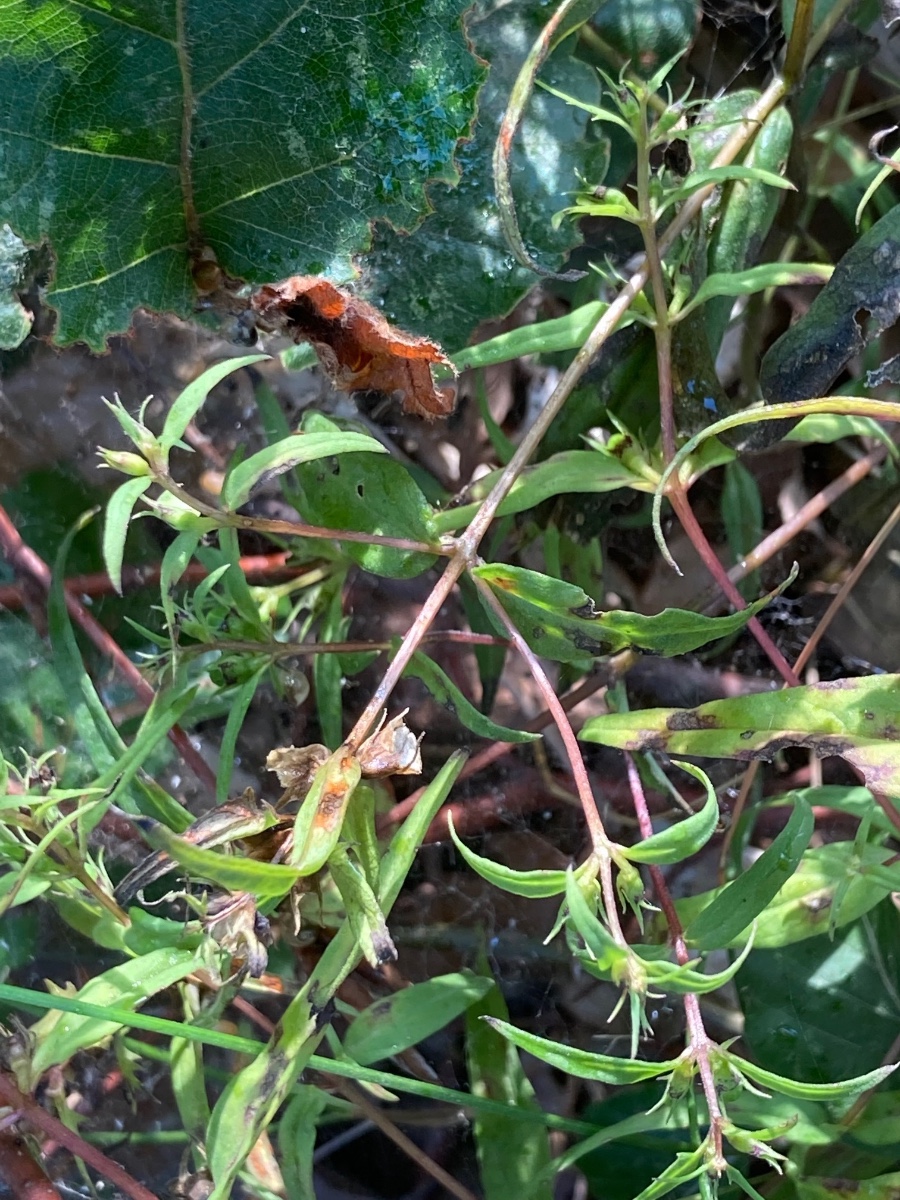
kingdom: Fungi
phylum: Basidiomycota
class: Pucciniomycetes
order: Pucciniales
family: Coleosporiaceae
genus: Coleosporium
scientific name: Coleosporium tussilaginis
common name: almindelig fyrrenålerust
